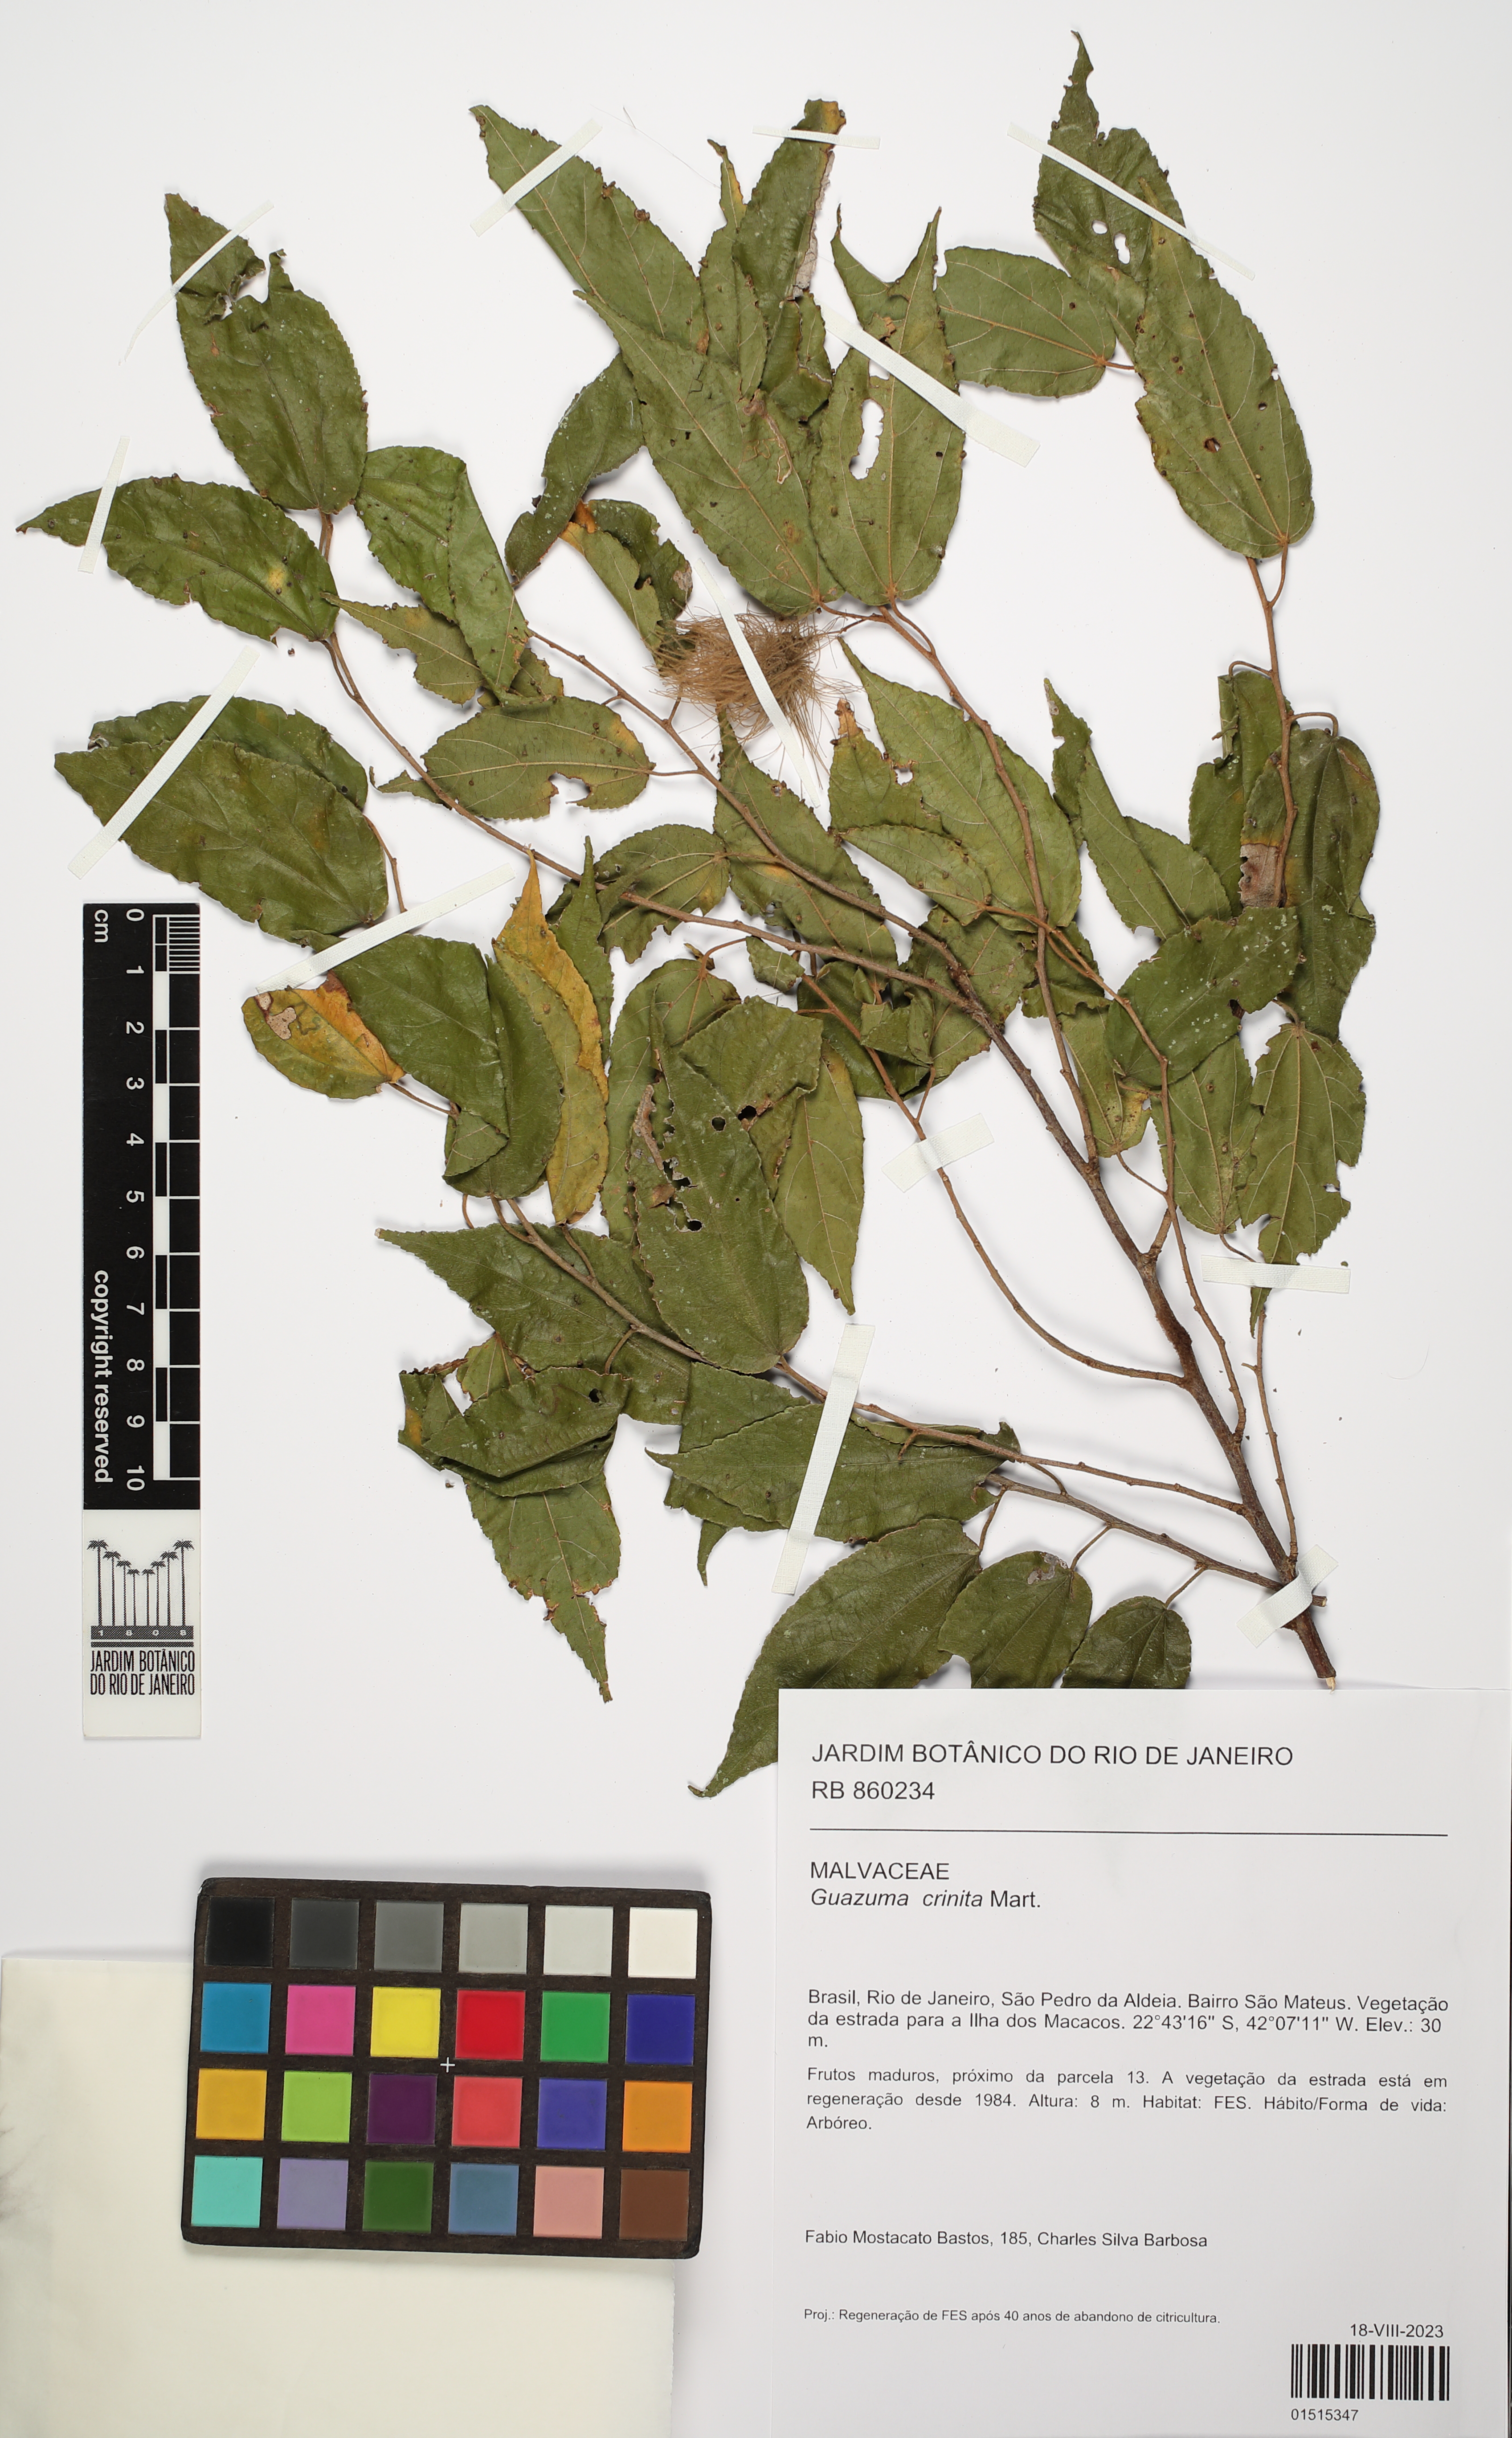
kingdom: Plantae
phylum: Tracheophyta
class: Magnoliopsida
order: Malvales
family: Malvaceae
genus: Guazuma
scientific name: Guazuma crinita
